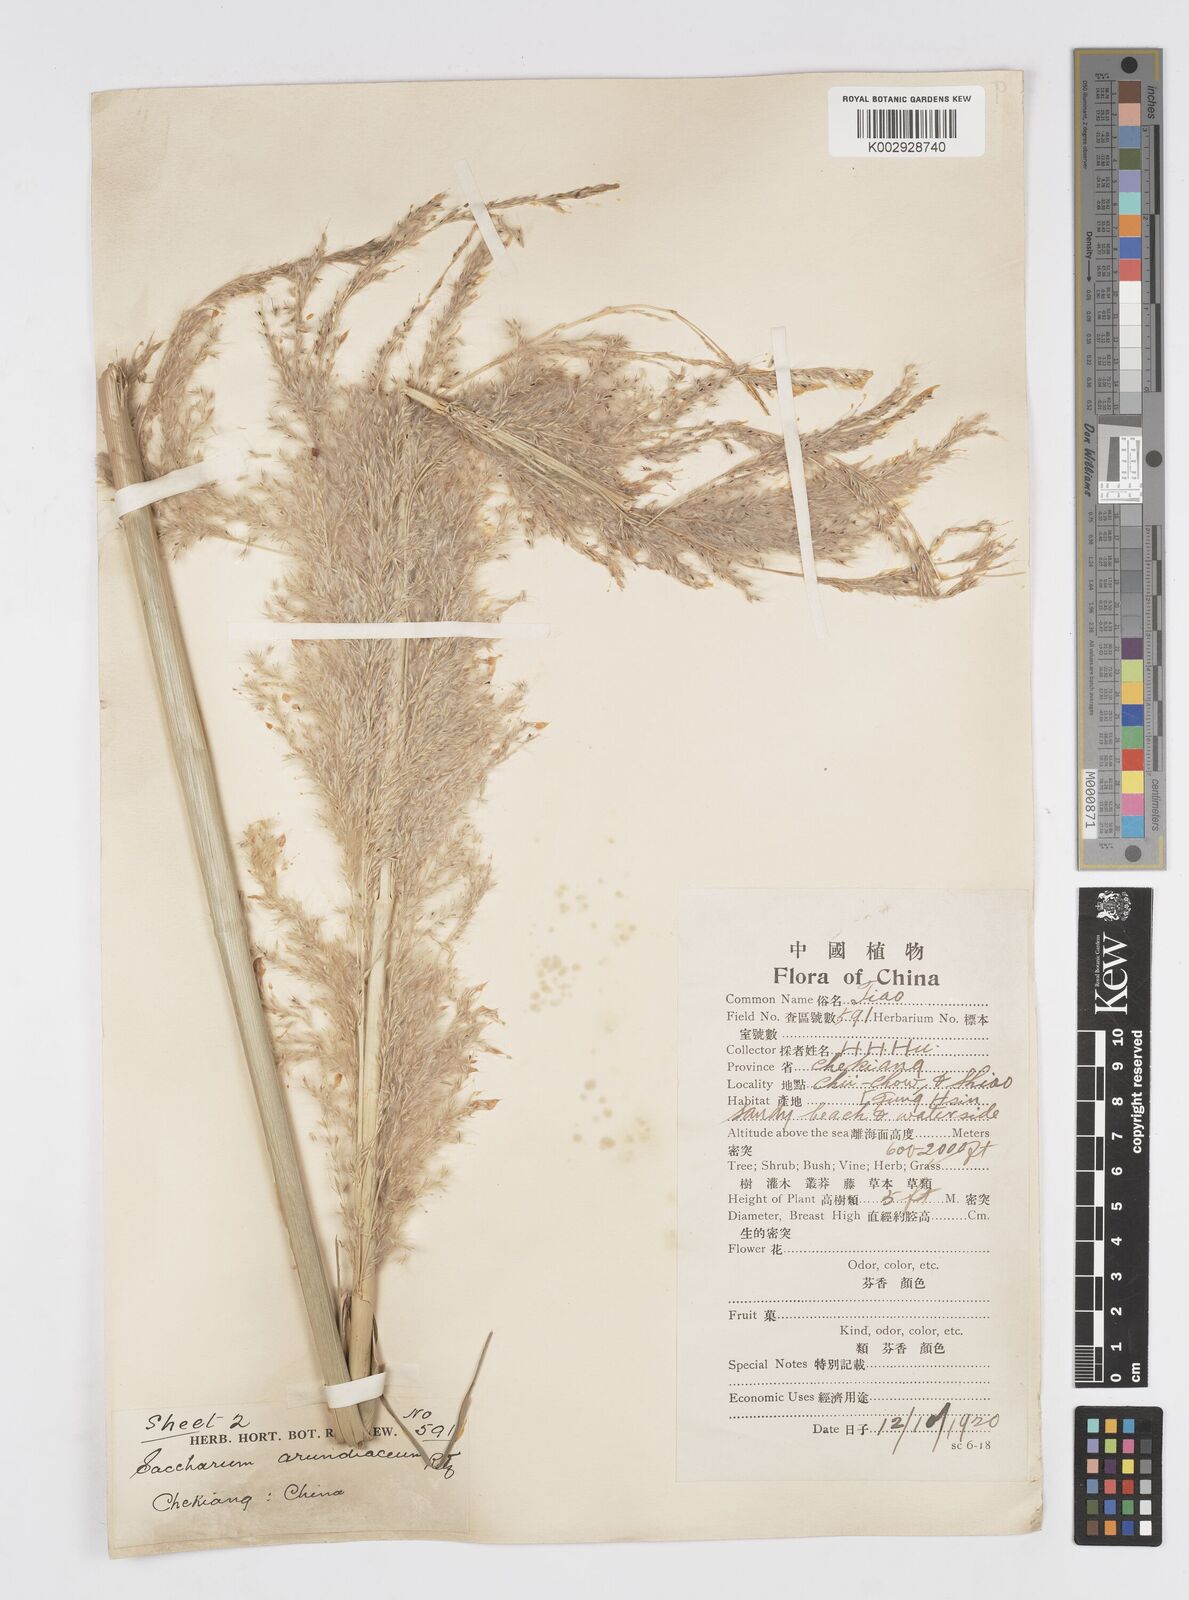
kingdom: Plantae
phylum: Tracheophyta
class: Liliopsida
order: Poales
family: Poaceae
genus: Tripidium
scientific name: Tripidium arundinaceum
